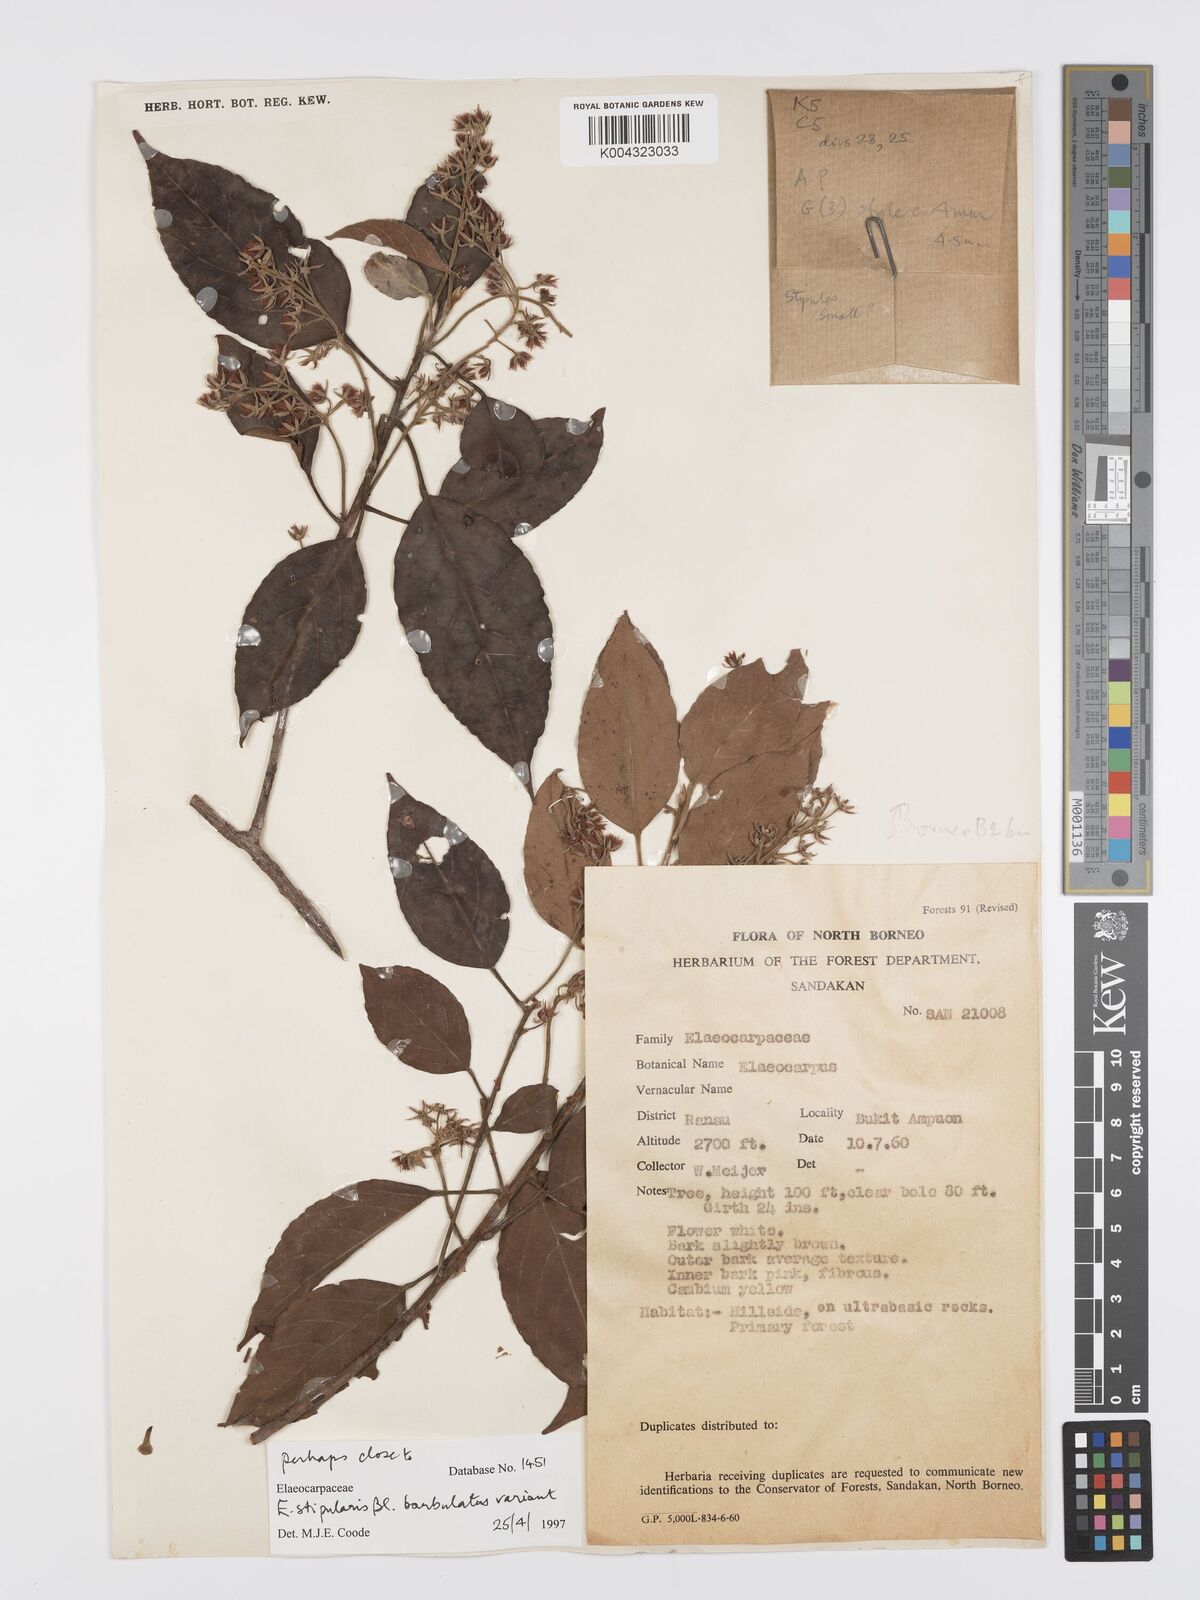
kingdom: Plantae
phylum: Tracheophyta
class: Magnoliopsida
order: Oxalidales
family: Elaeocarpaceae
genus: Elaeocarpus
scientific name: Elaeocarpus stipularis
